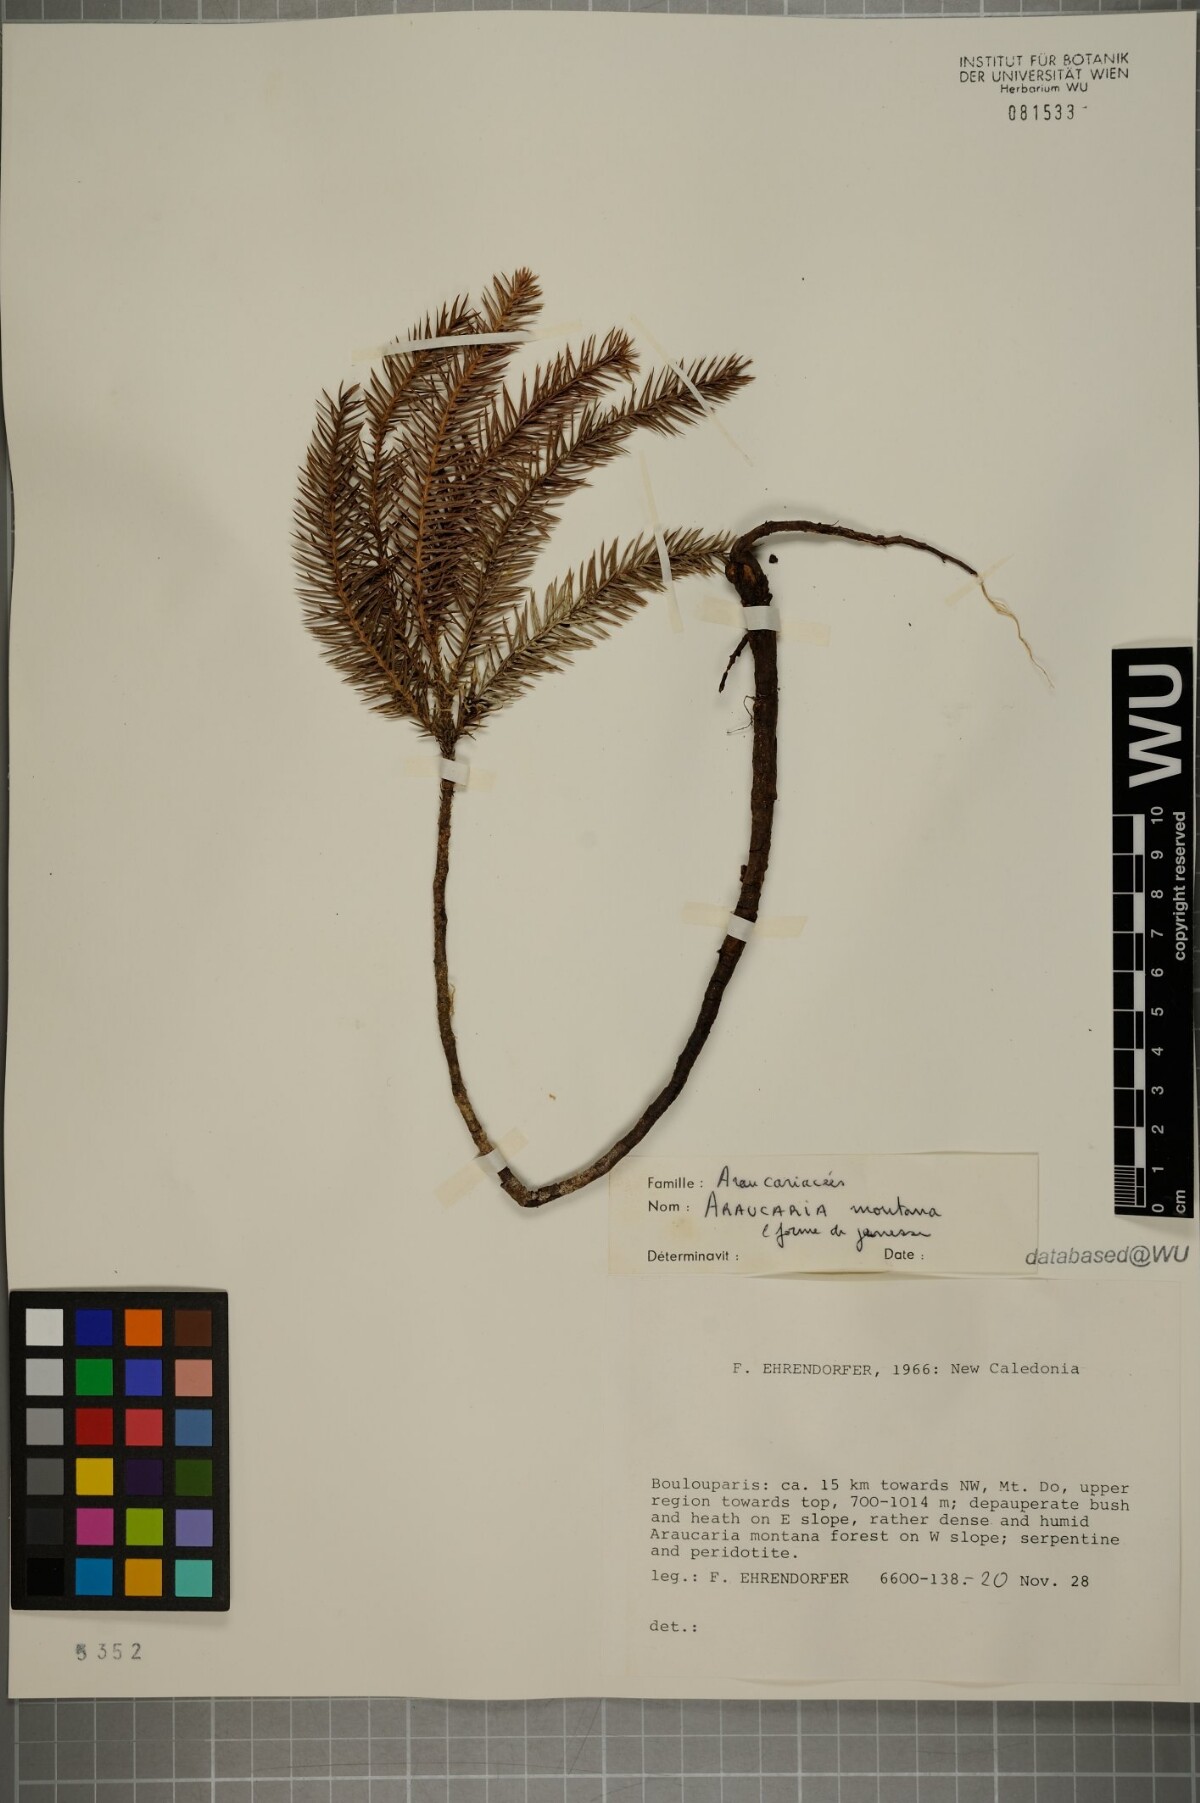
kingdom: Plantae
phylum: Tracheophyta
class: Pinopsida
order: Pinales
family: Araucariaceae
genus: Araucaria
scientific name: Araucaria montana
